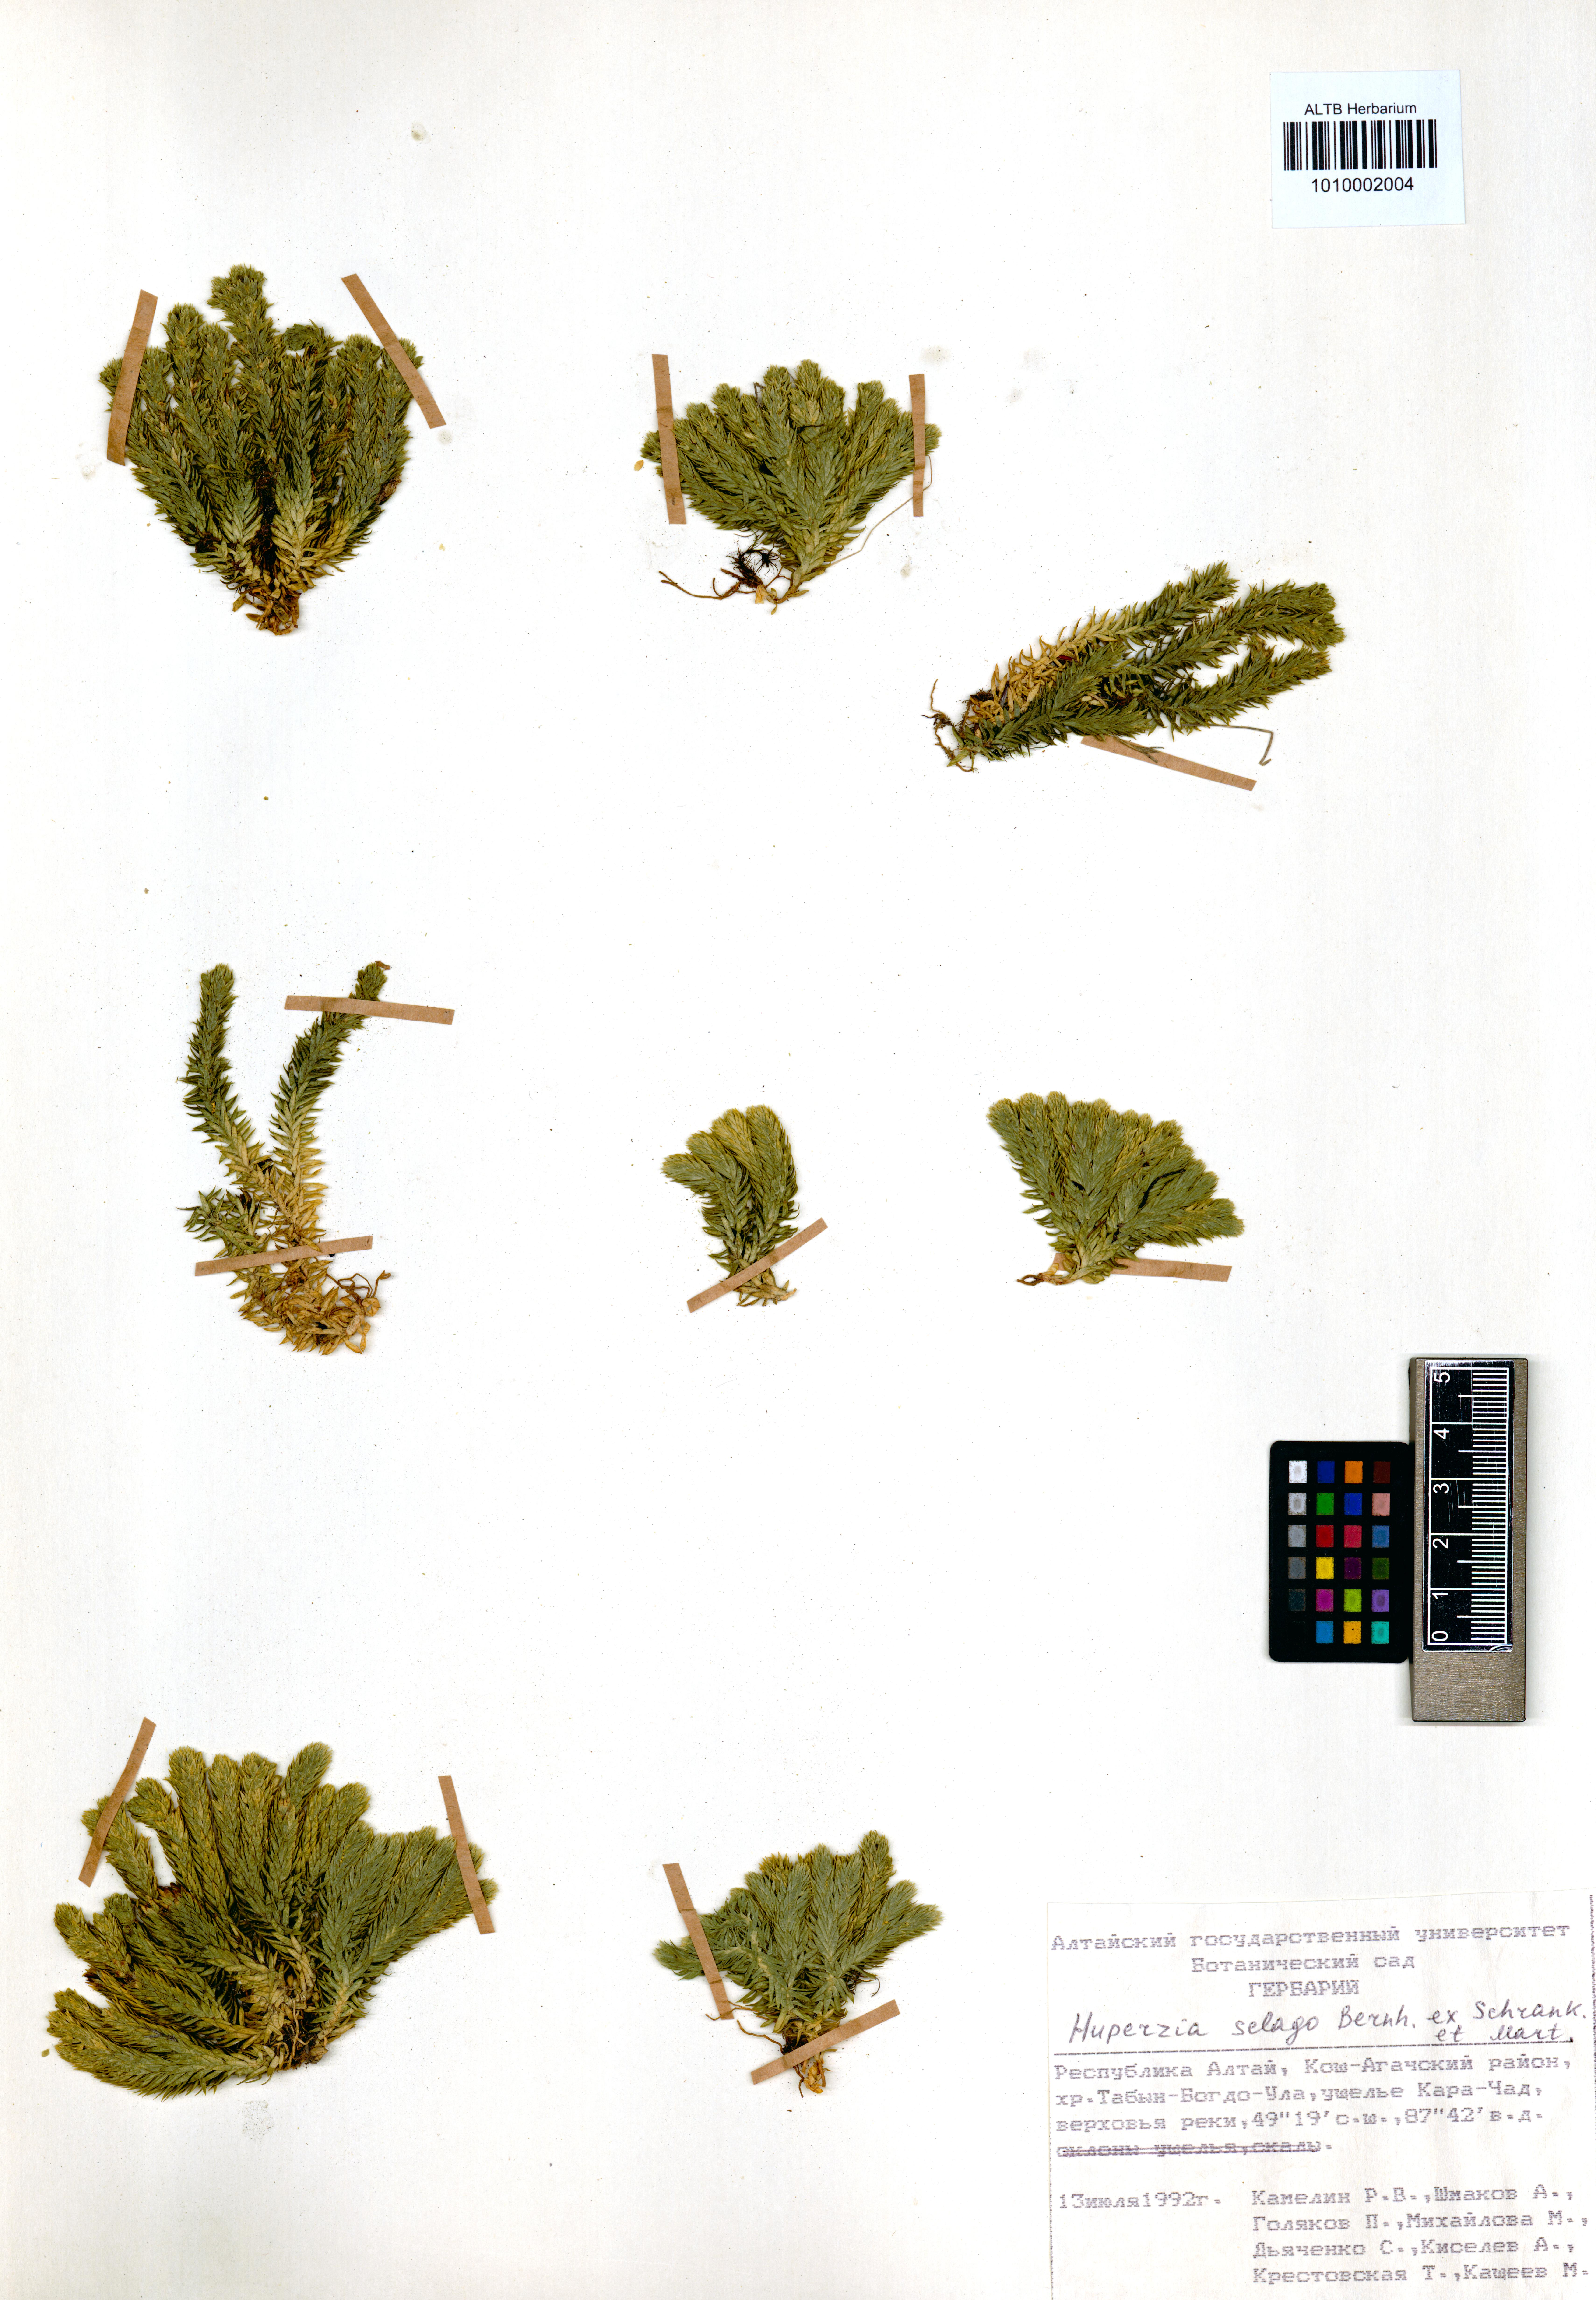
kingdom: Plantae
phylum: Tracheophyta
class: Lycopodiopsida
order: Lycopodiales
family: Lycopodiaceae
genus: Huperzia
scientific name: Huperzia selago
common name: Northern firmoss
